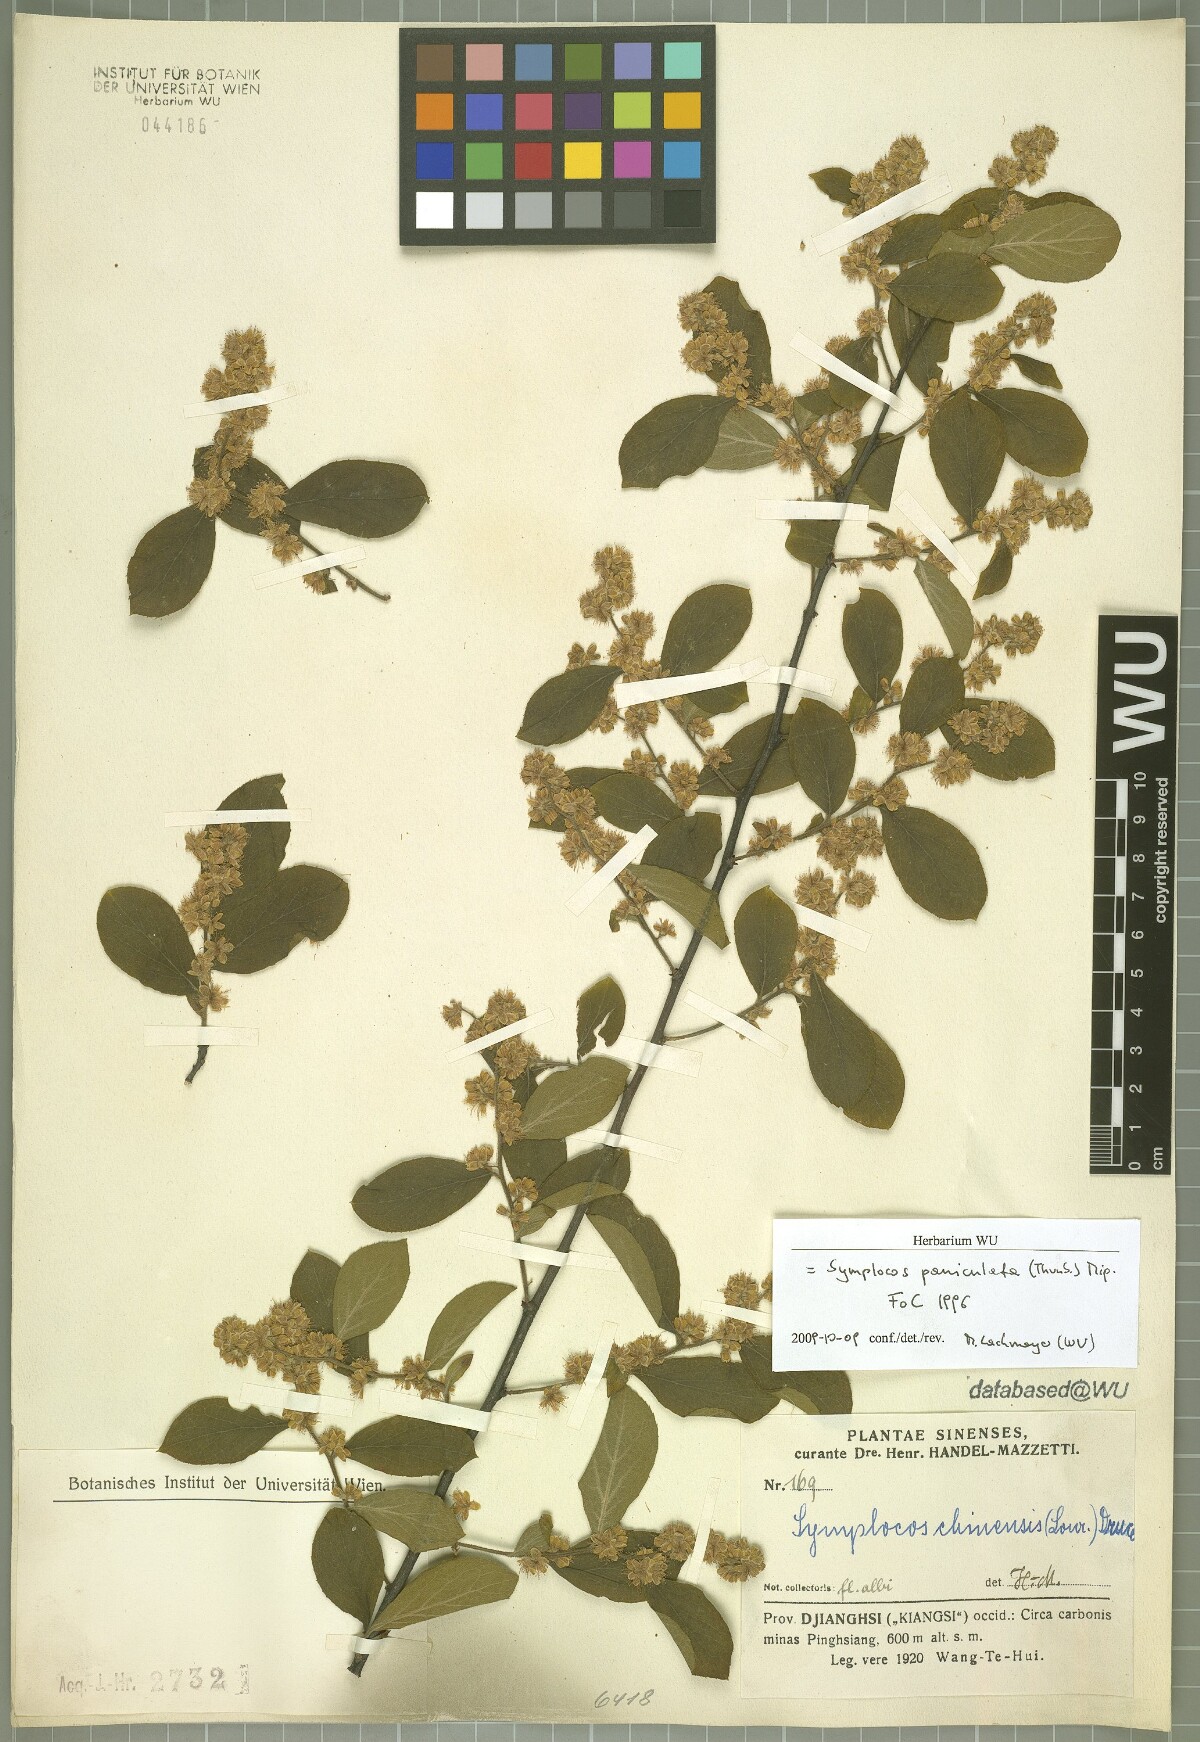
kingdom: Plantae
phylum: Tracheophyta
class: Magnoliopsida
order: Ericales
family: Symplocaceae
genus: Symplocos
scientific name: Symplocos paniculata
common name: Sapphire-berry
